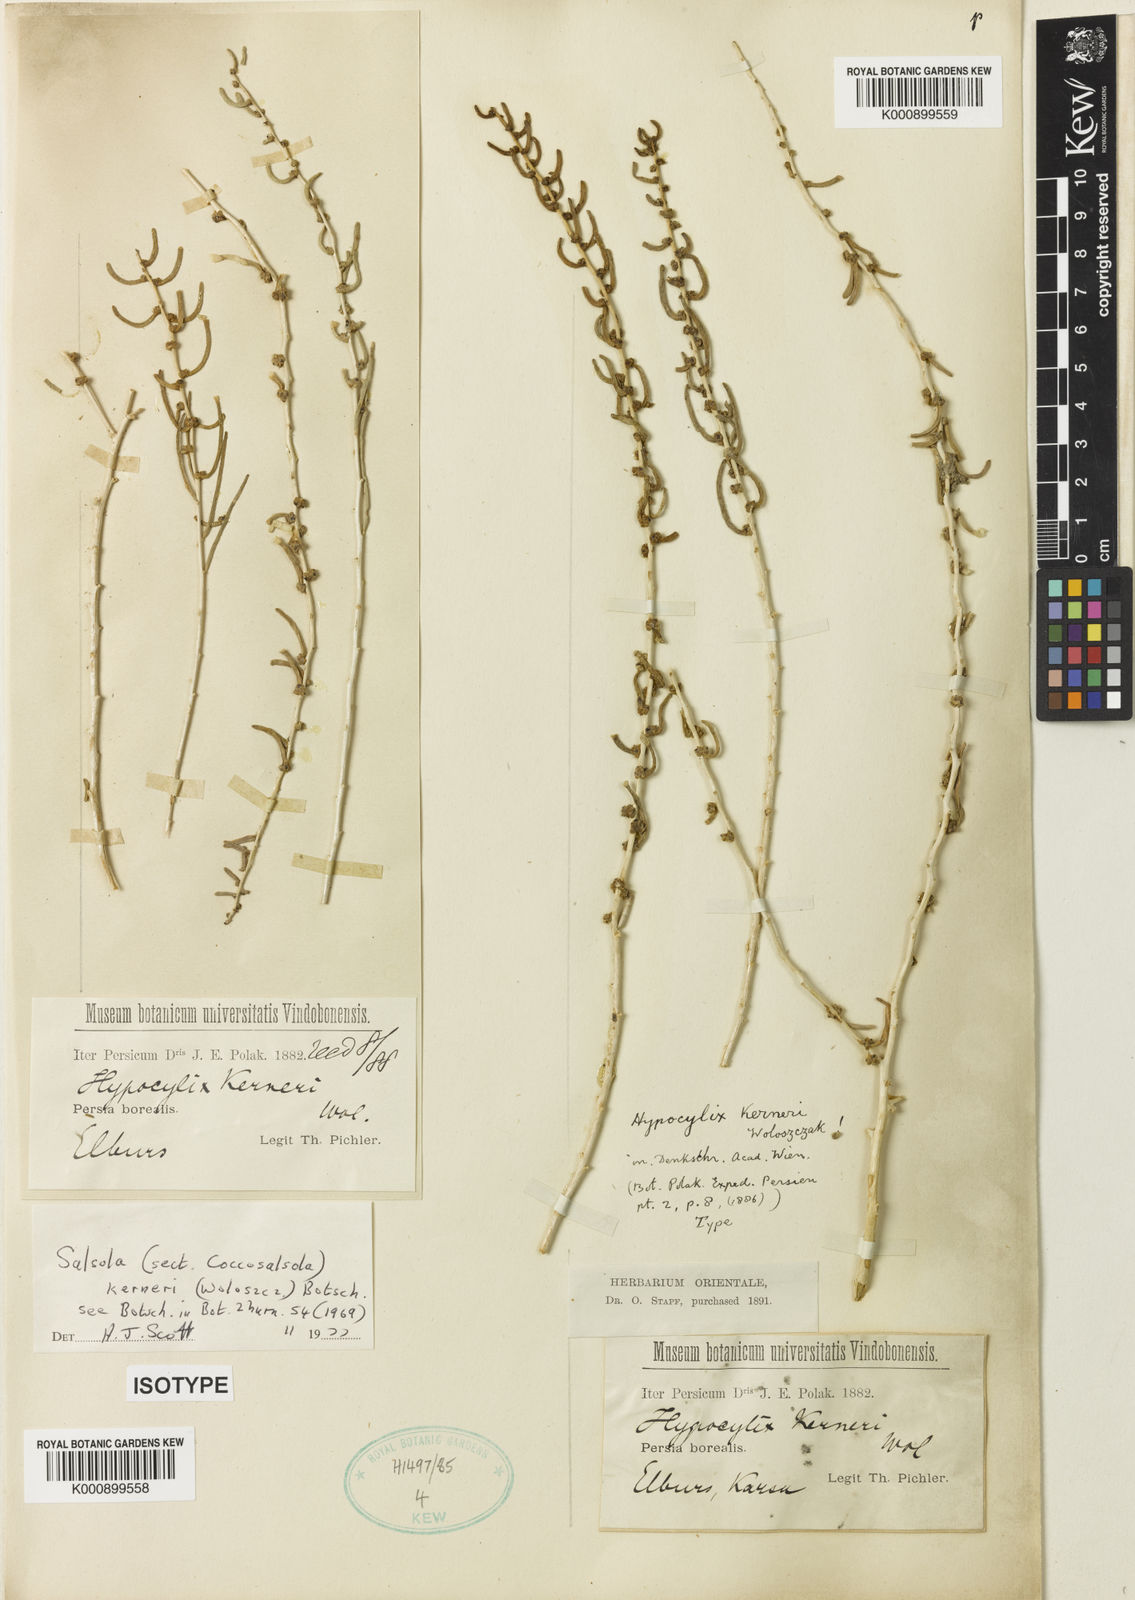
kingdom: Plantae
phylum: Tracheophyta
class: Magnoliopsida
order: Caryophyllales
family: Amaranthaceae
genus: Soda
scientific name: Soda kerneri
